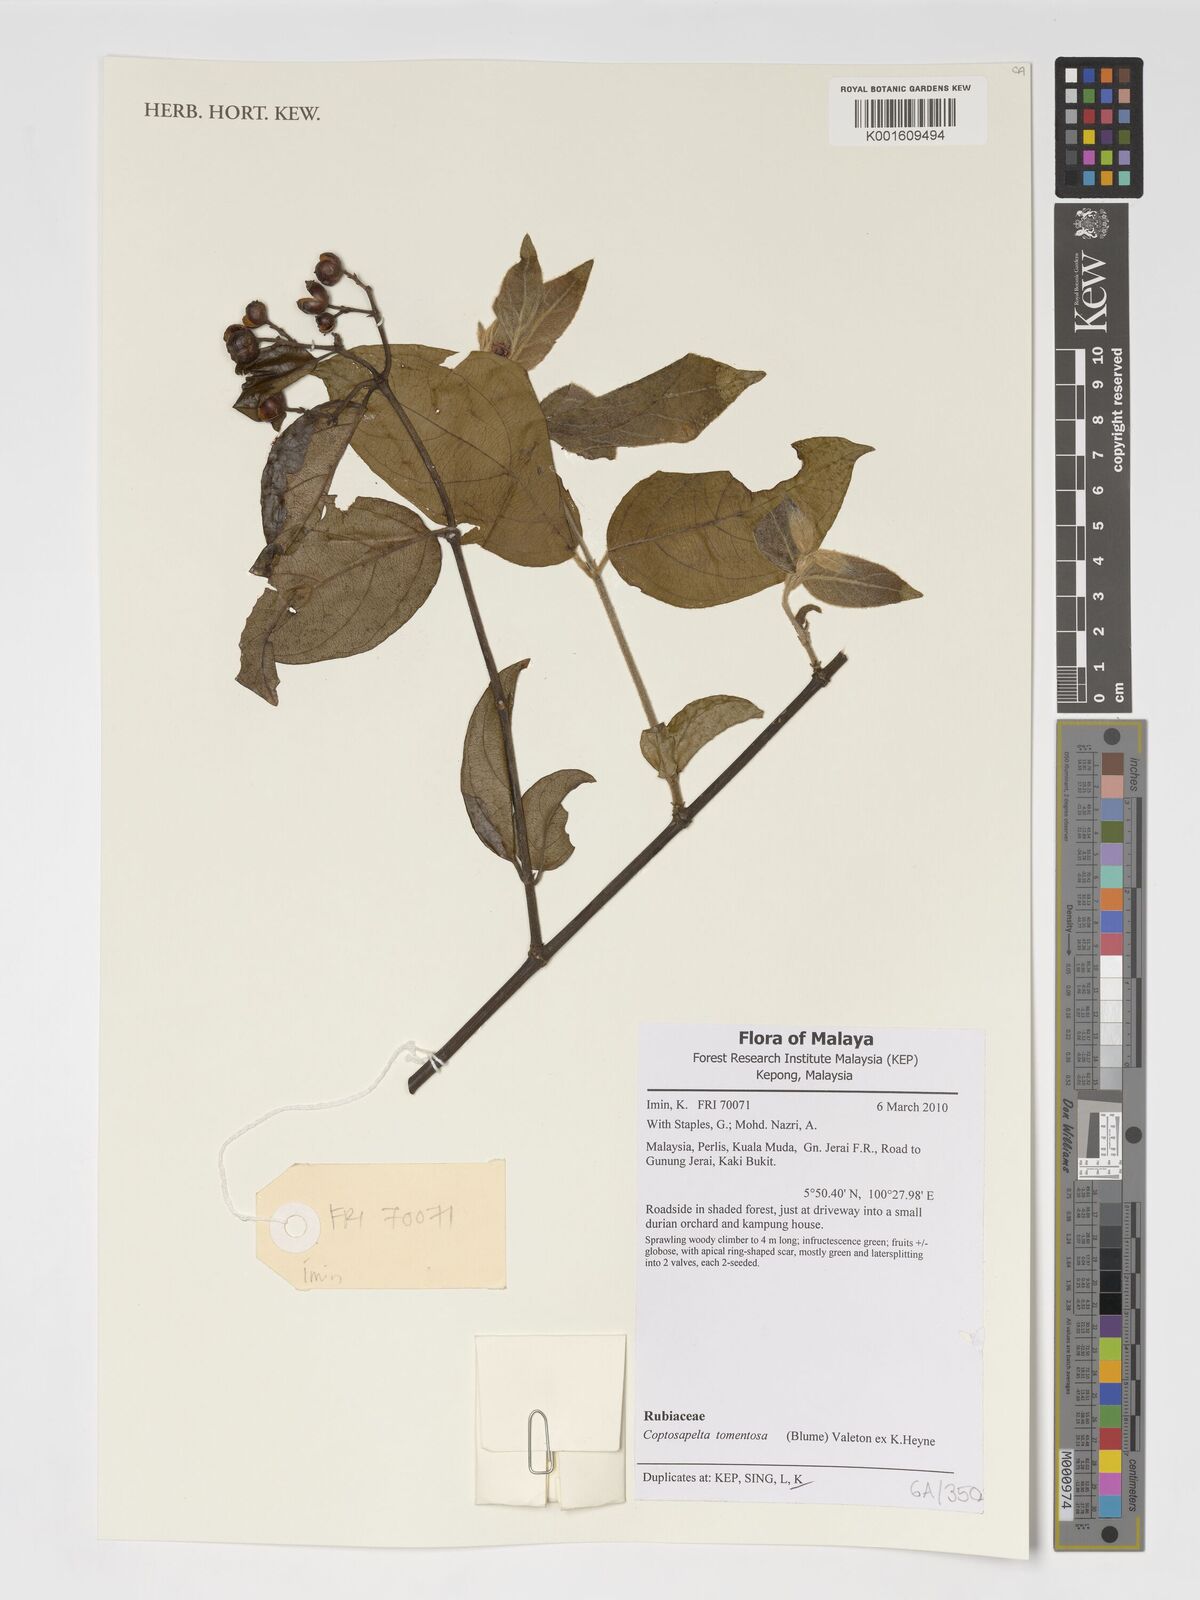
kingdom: Plantae
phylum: Tracheophyta
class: Magnoliopsida
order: Gentianales
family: Rubiaceae
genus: Coptosapelta
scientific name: Coptosapelta tomentosa
